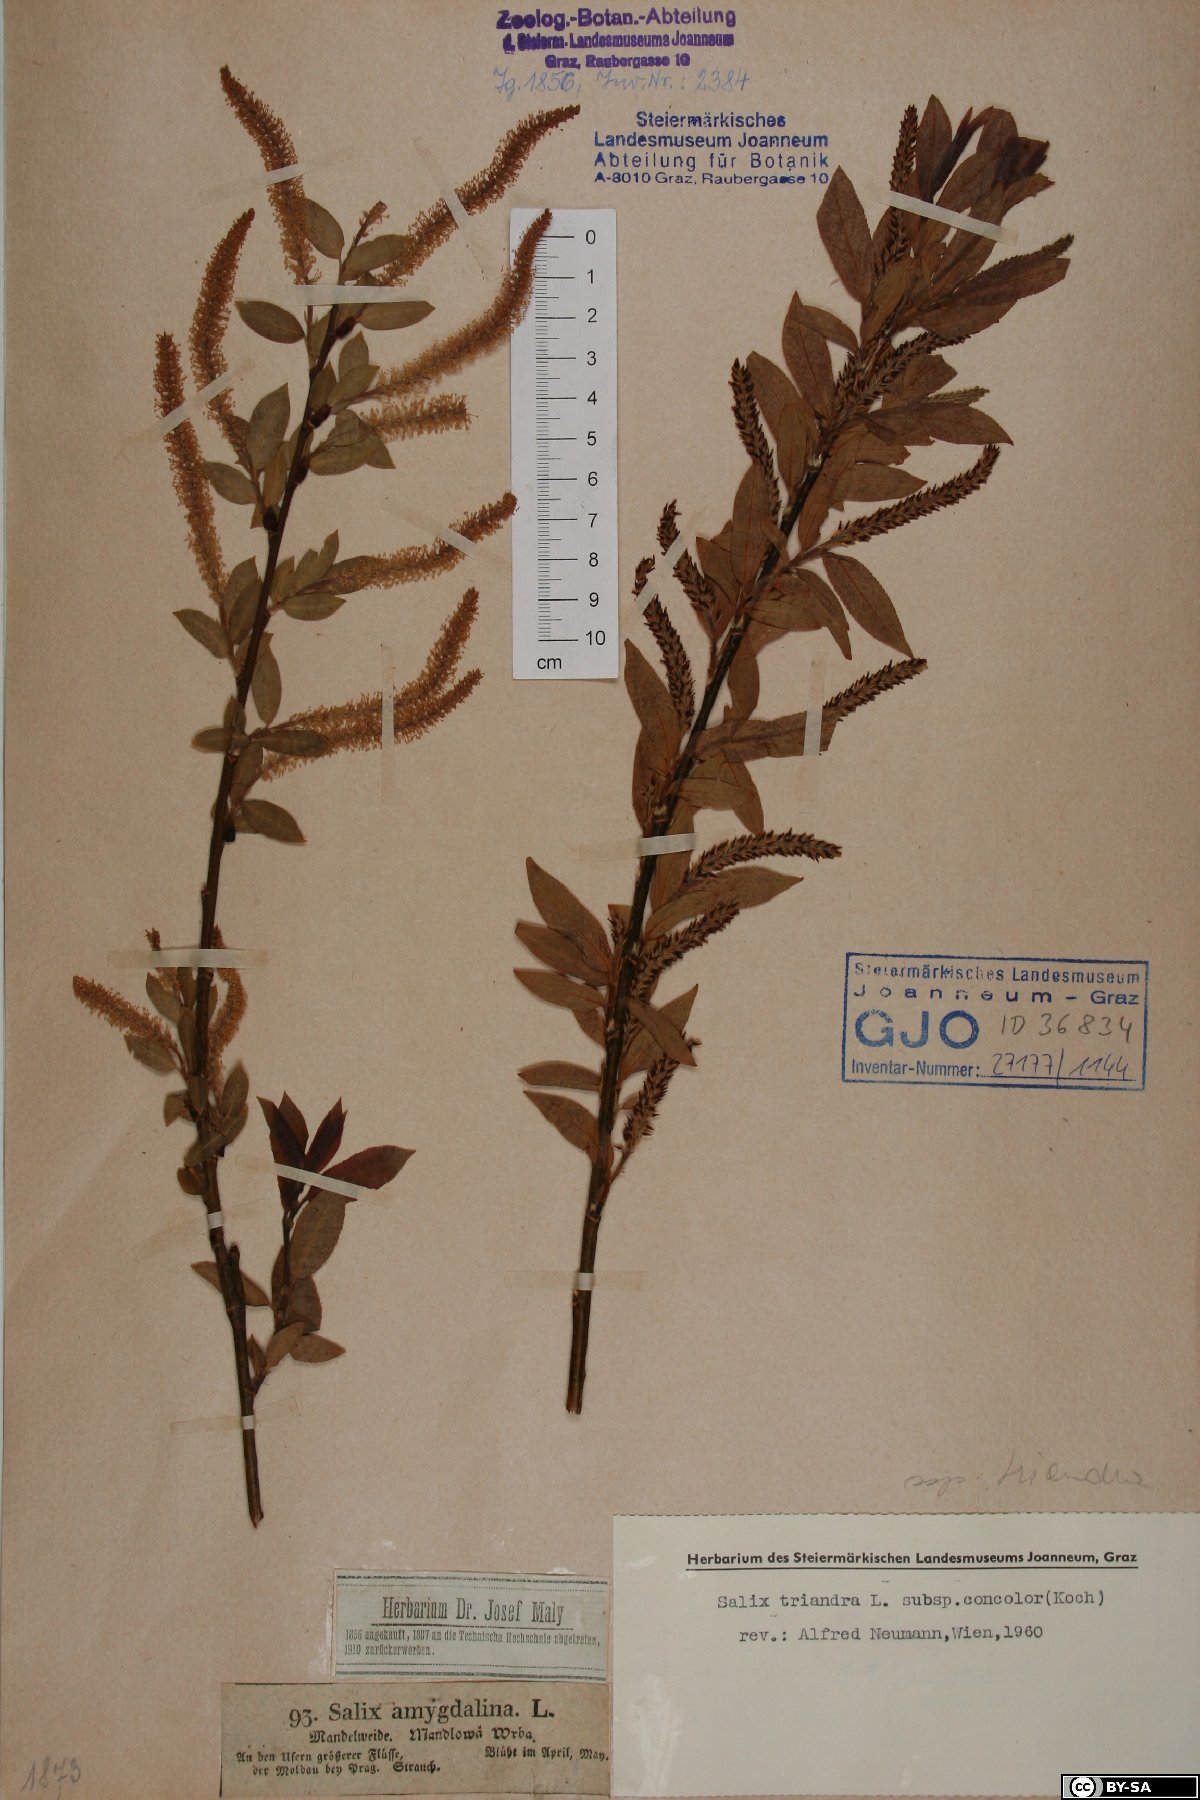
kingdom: Plantae
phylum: Tracheophyta
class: Magnoliopsida
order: Malpighiales
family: Salicaceae
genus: Salix
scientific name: Salix triandra
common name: Almond willow
